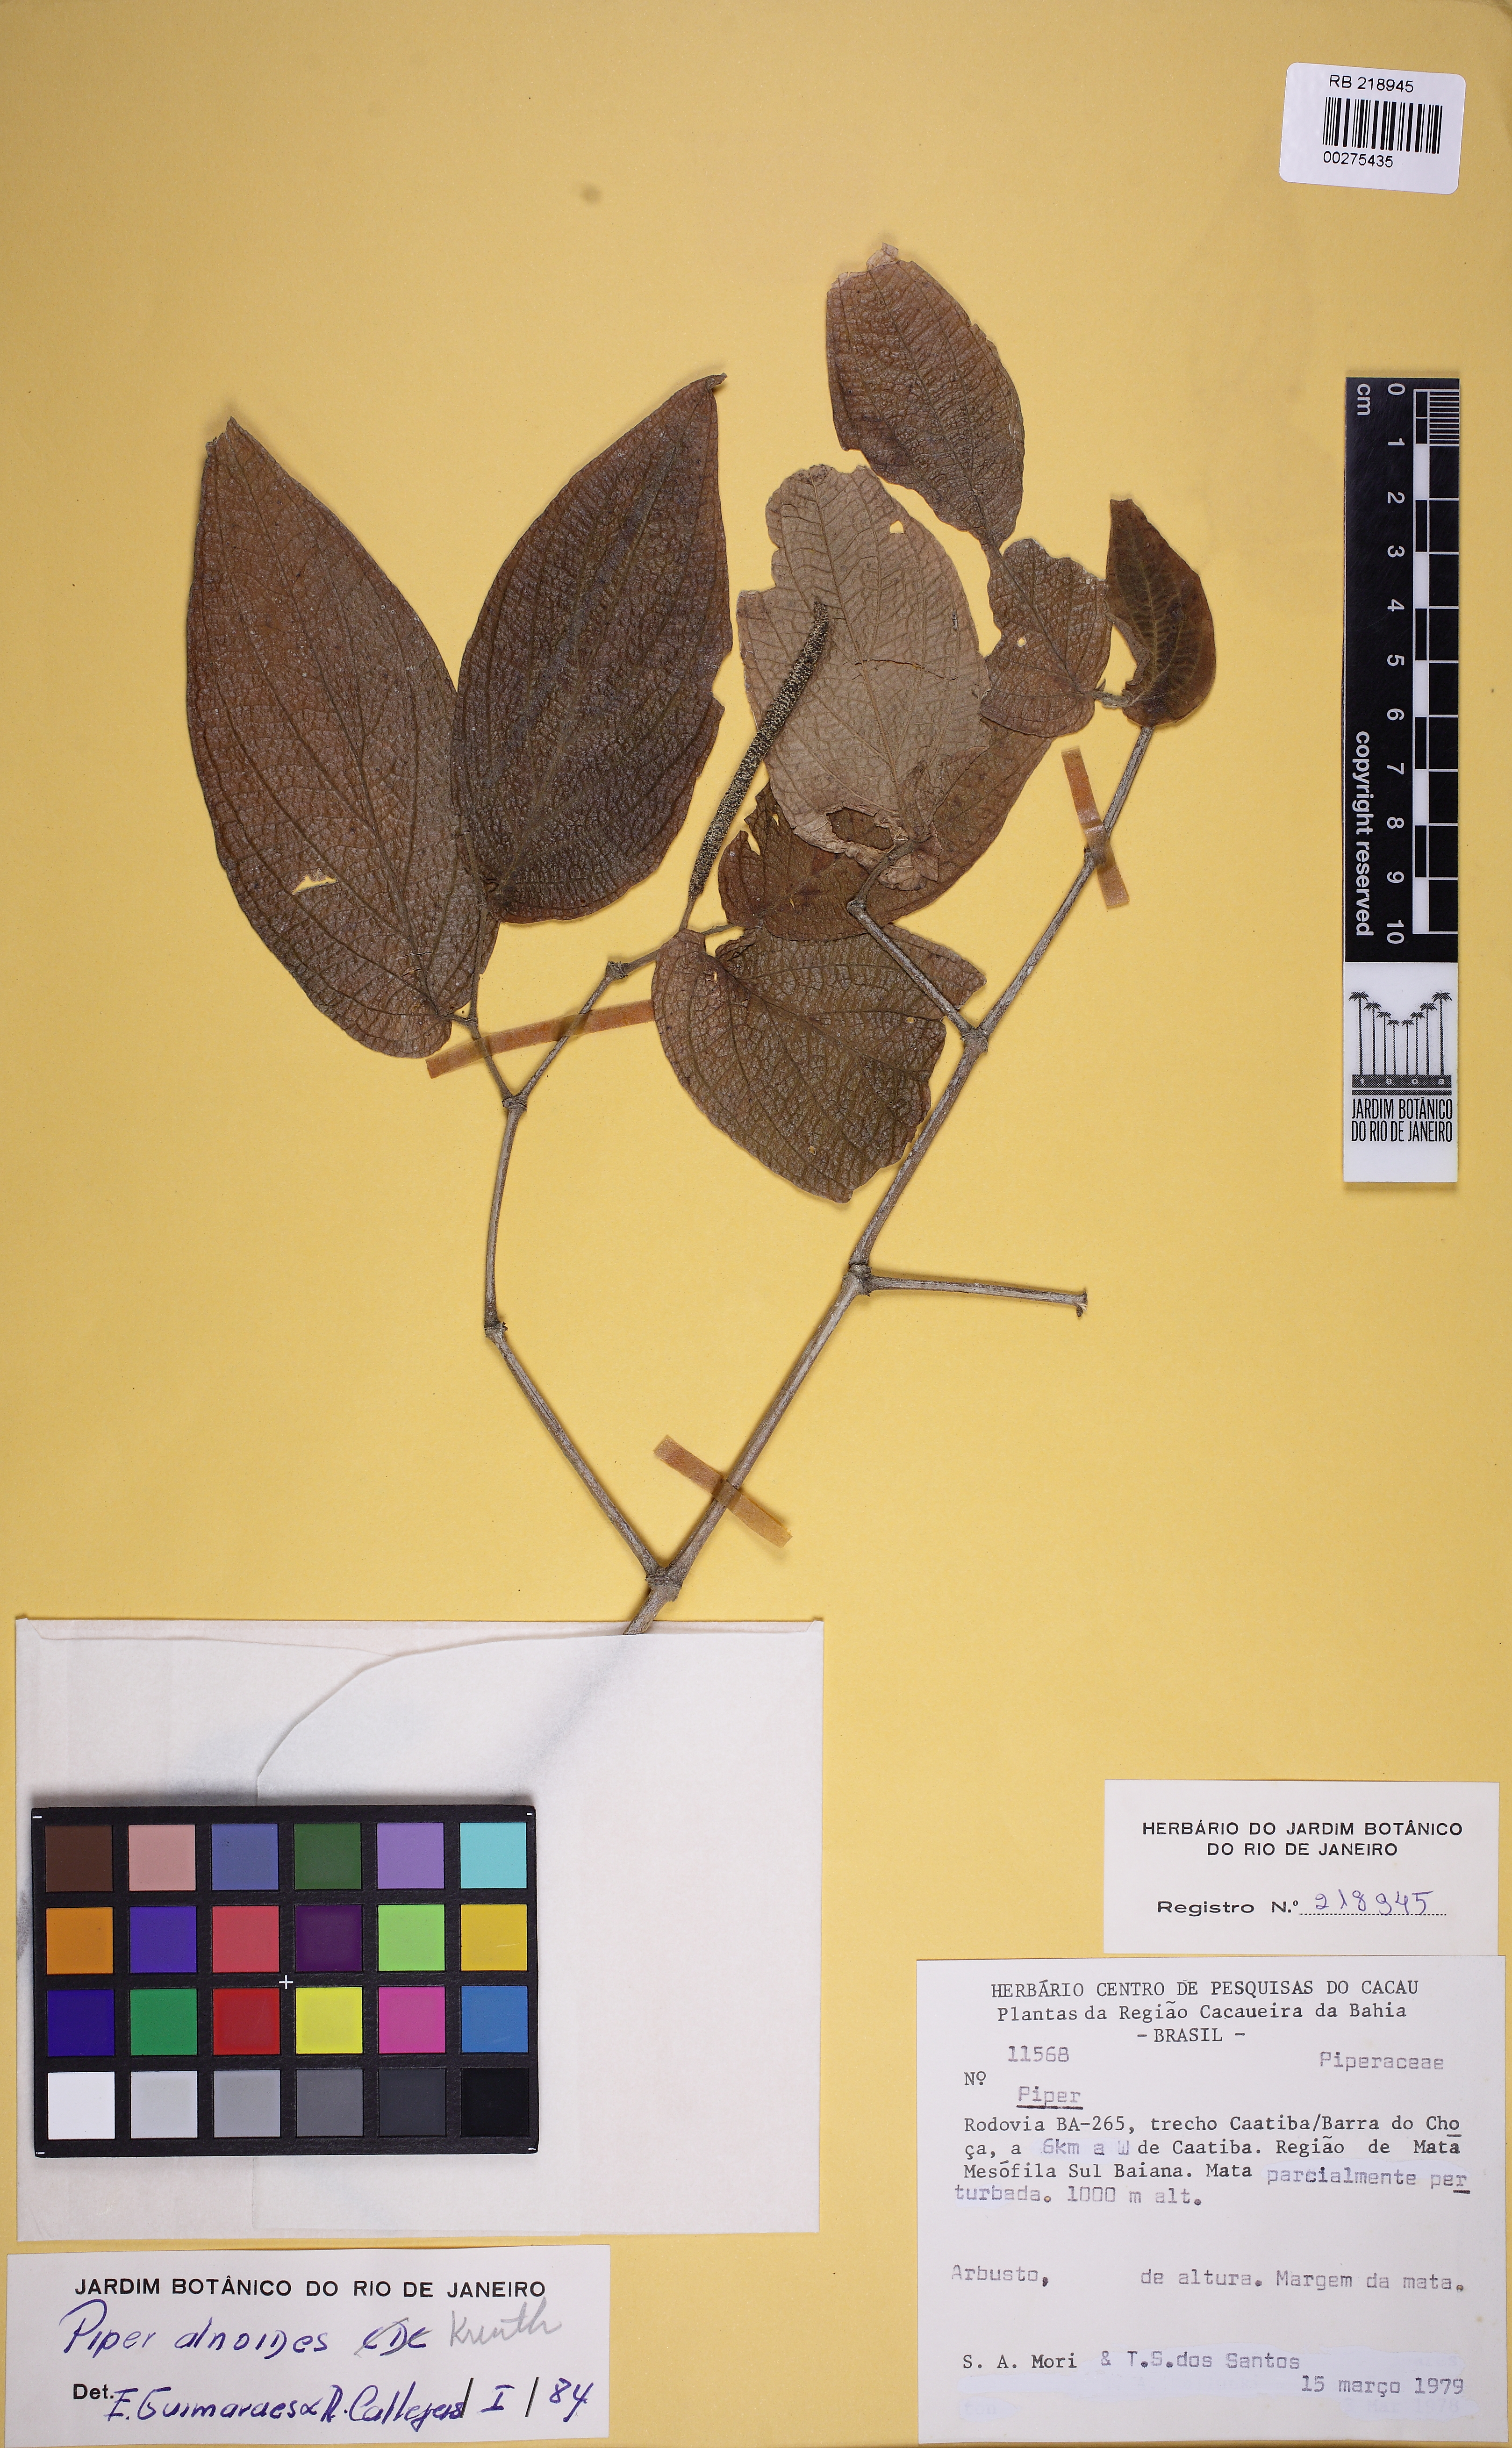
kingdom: Plantae
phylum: Tracheophyta
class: Magnoliopsida
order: Piperales
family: Piperaceae
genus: Piper
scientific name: Piper alnoides
